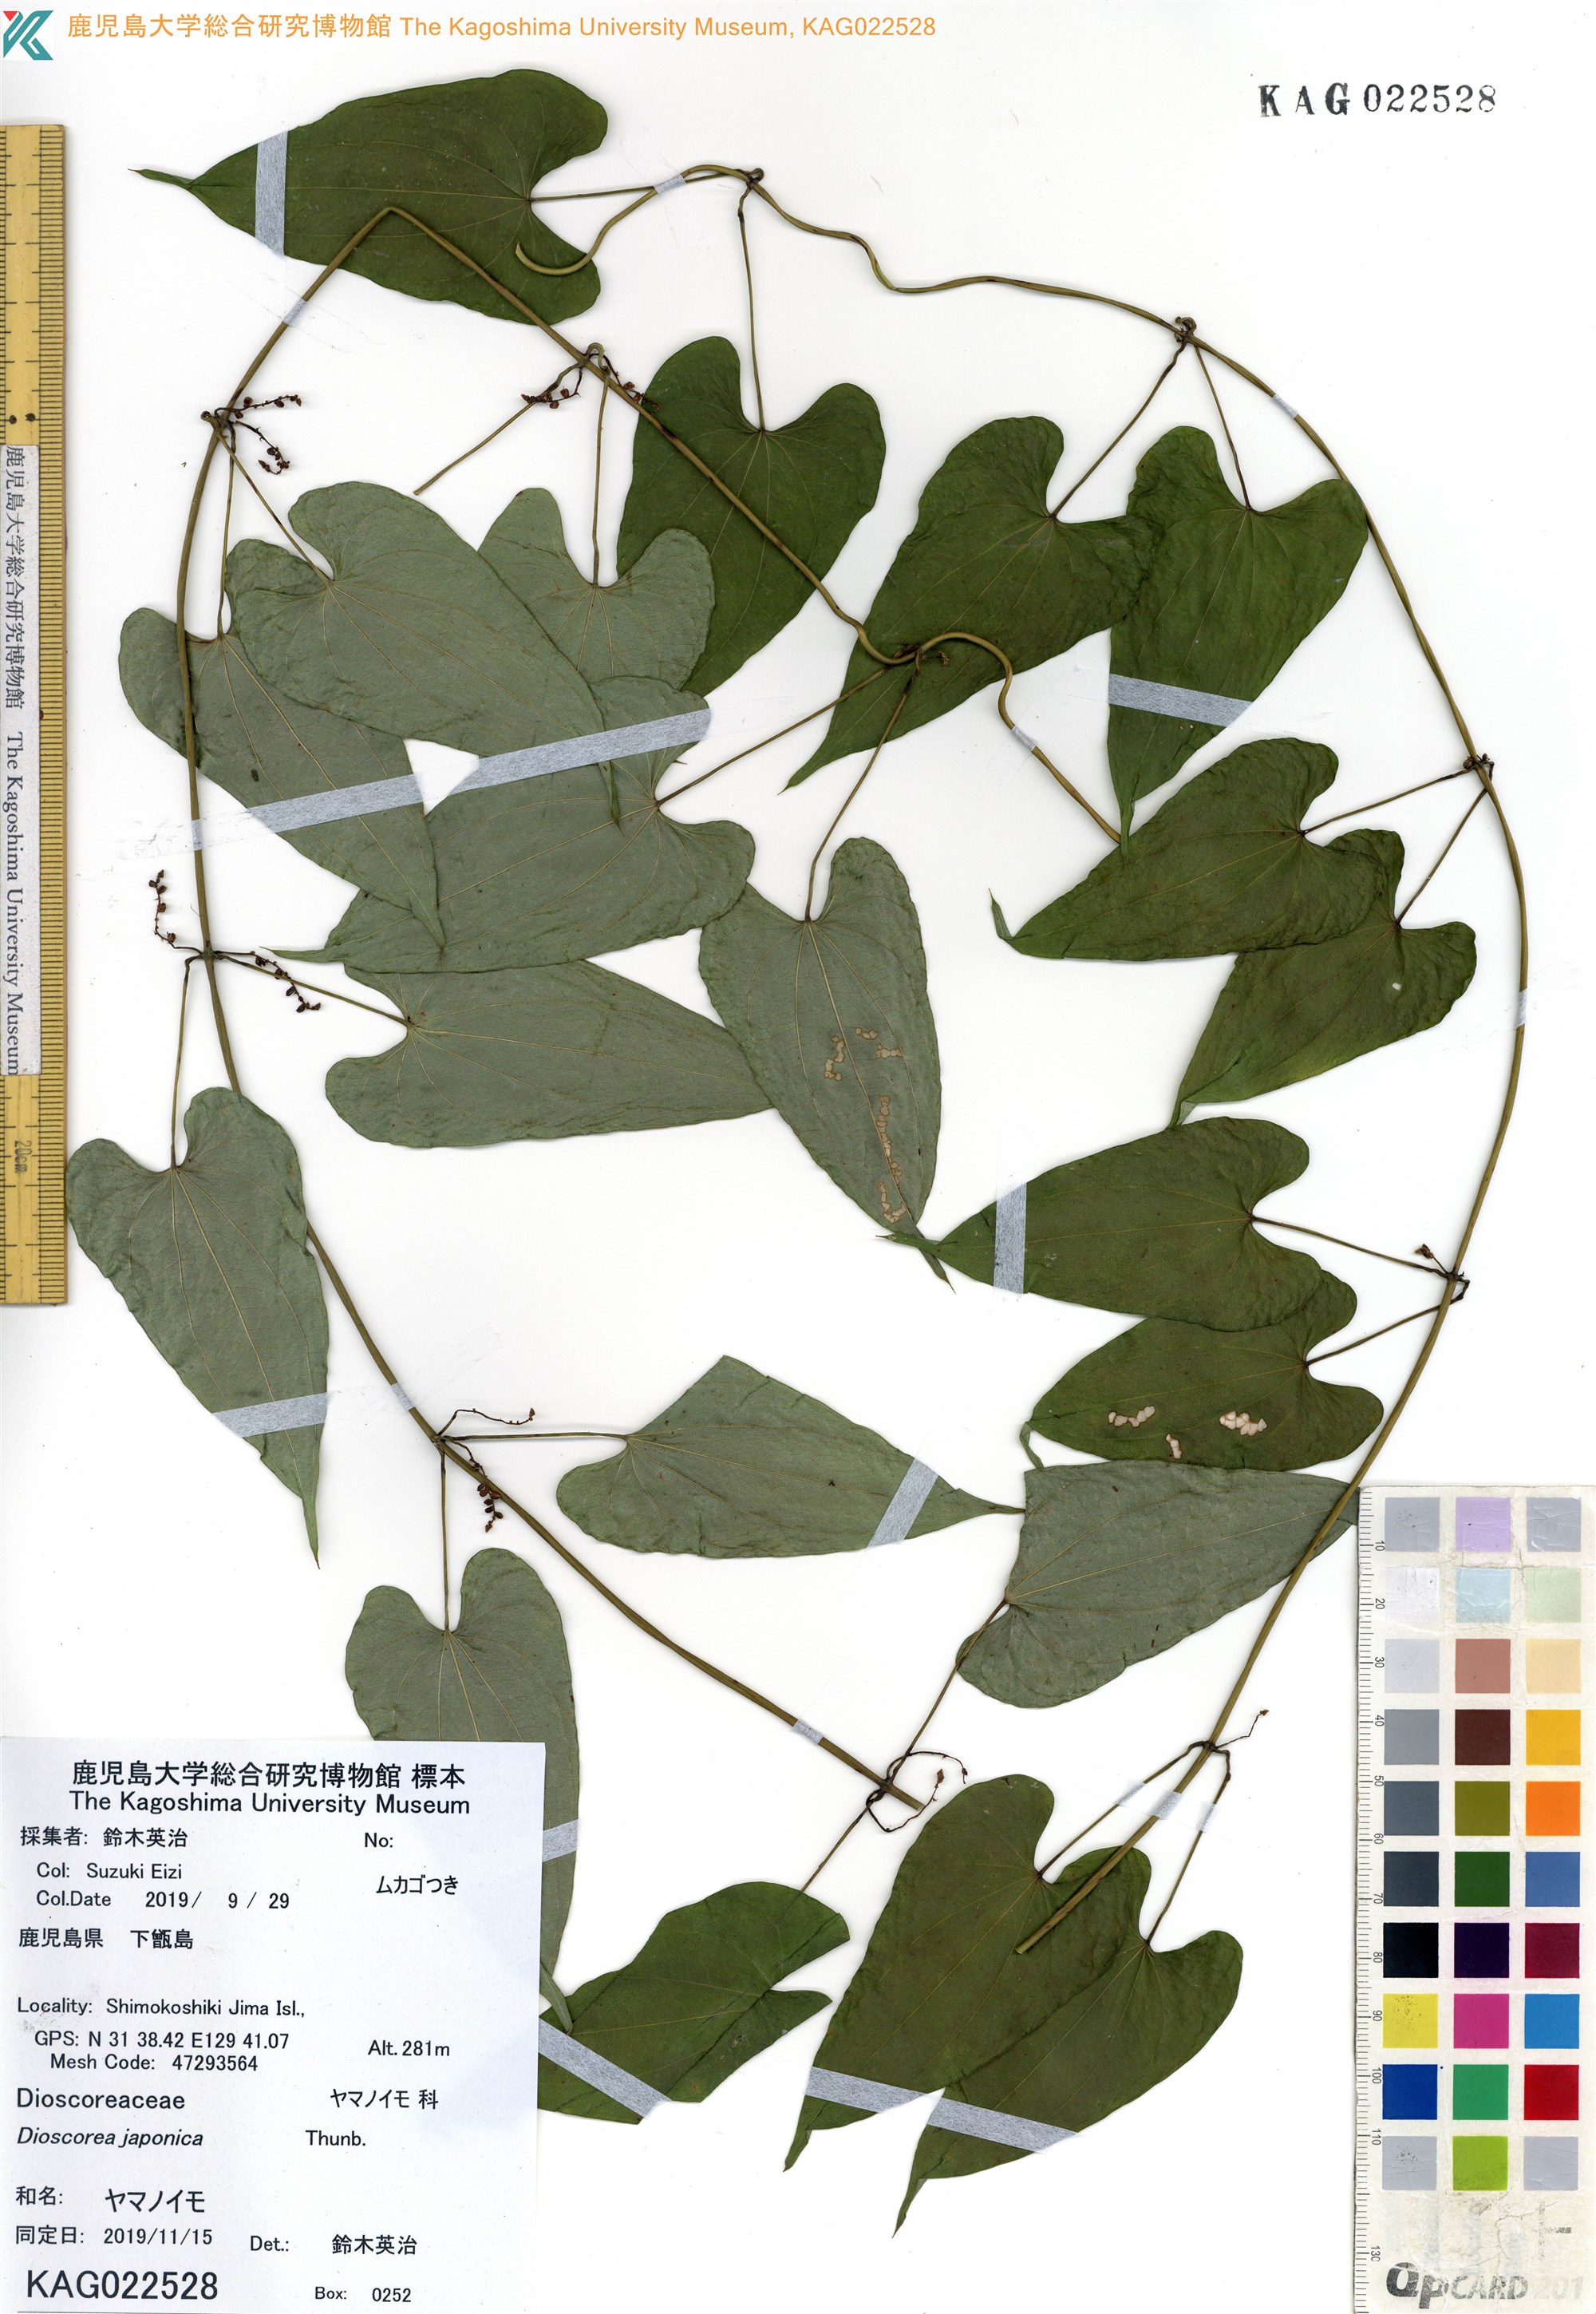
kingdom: Plantae
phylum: Tracheophyta
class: Liliopsida
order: Dioscoreales
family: Dioscoreaceae
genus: Dioscorea
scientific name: Dioscorea japonica
